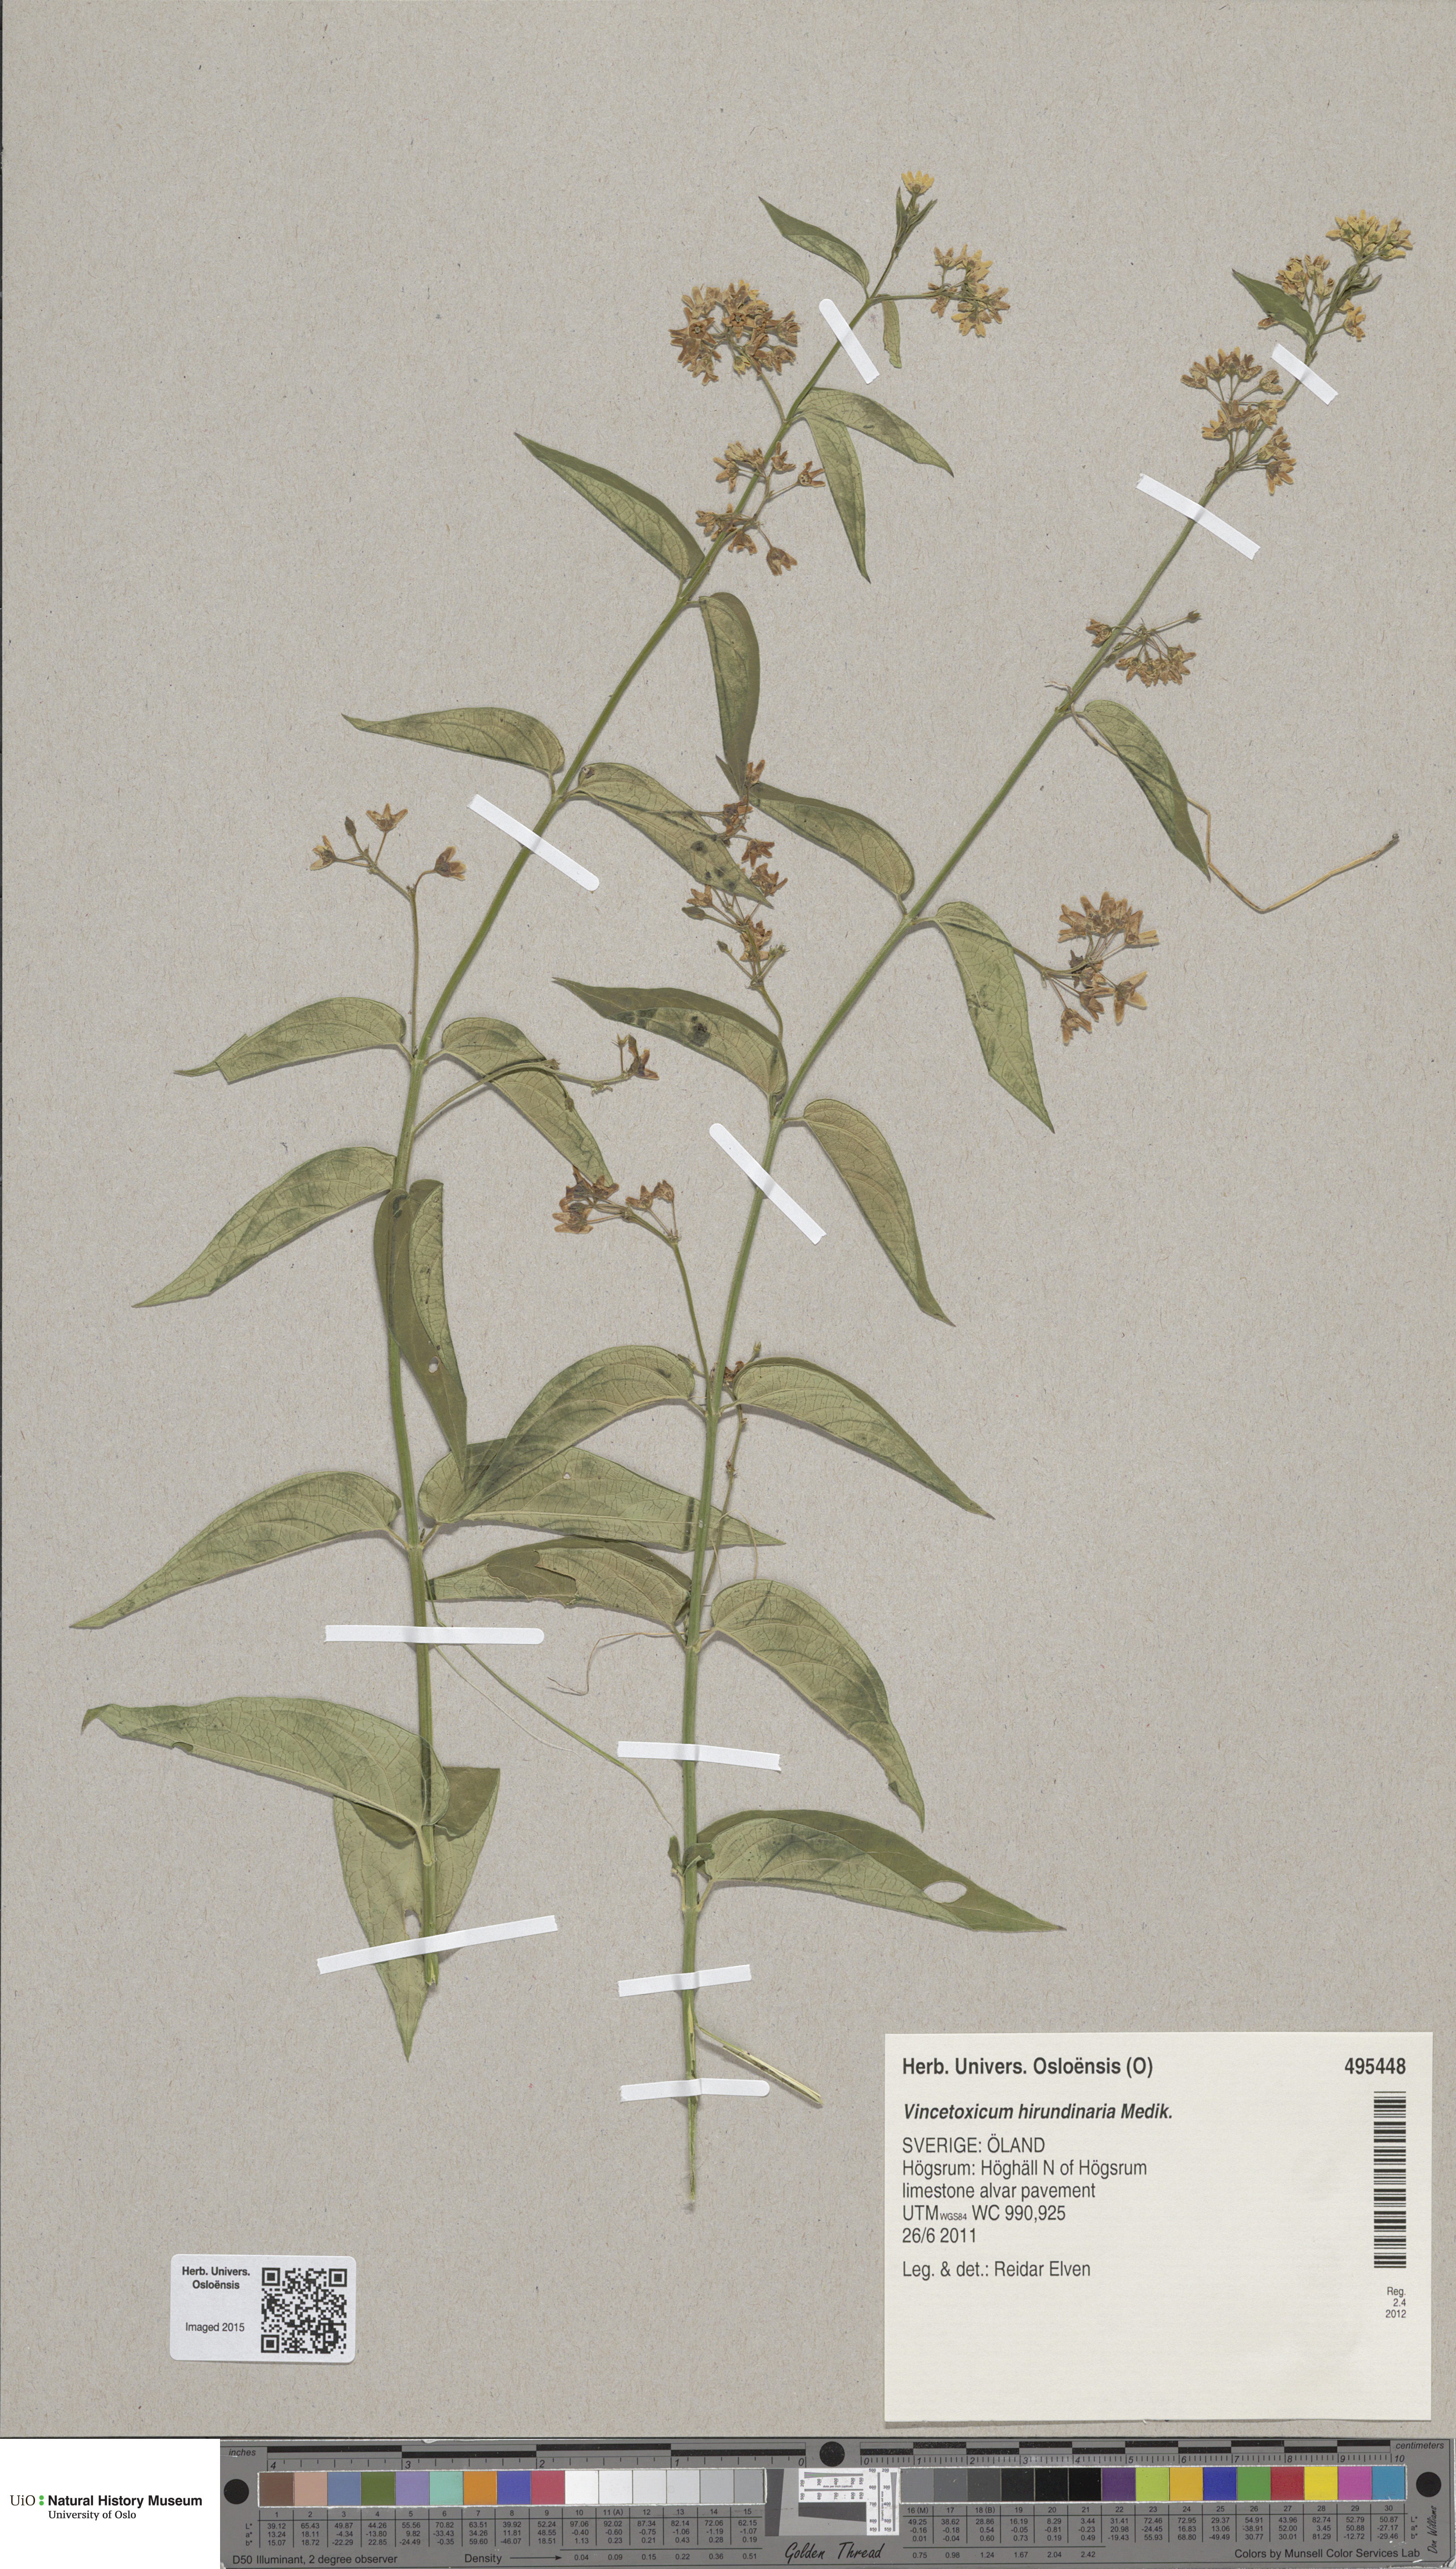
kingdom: Plantae
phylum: Tracheophyta
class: Magnoliopsida
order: Gentianales
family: Apocynaceae
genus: Vincetoxicum
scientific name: Vincetoxicum hirundinaria
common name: White swallowwort
